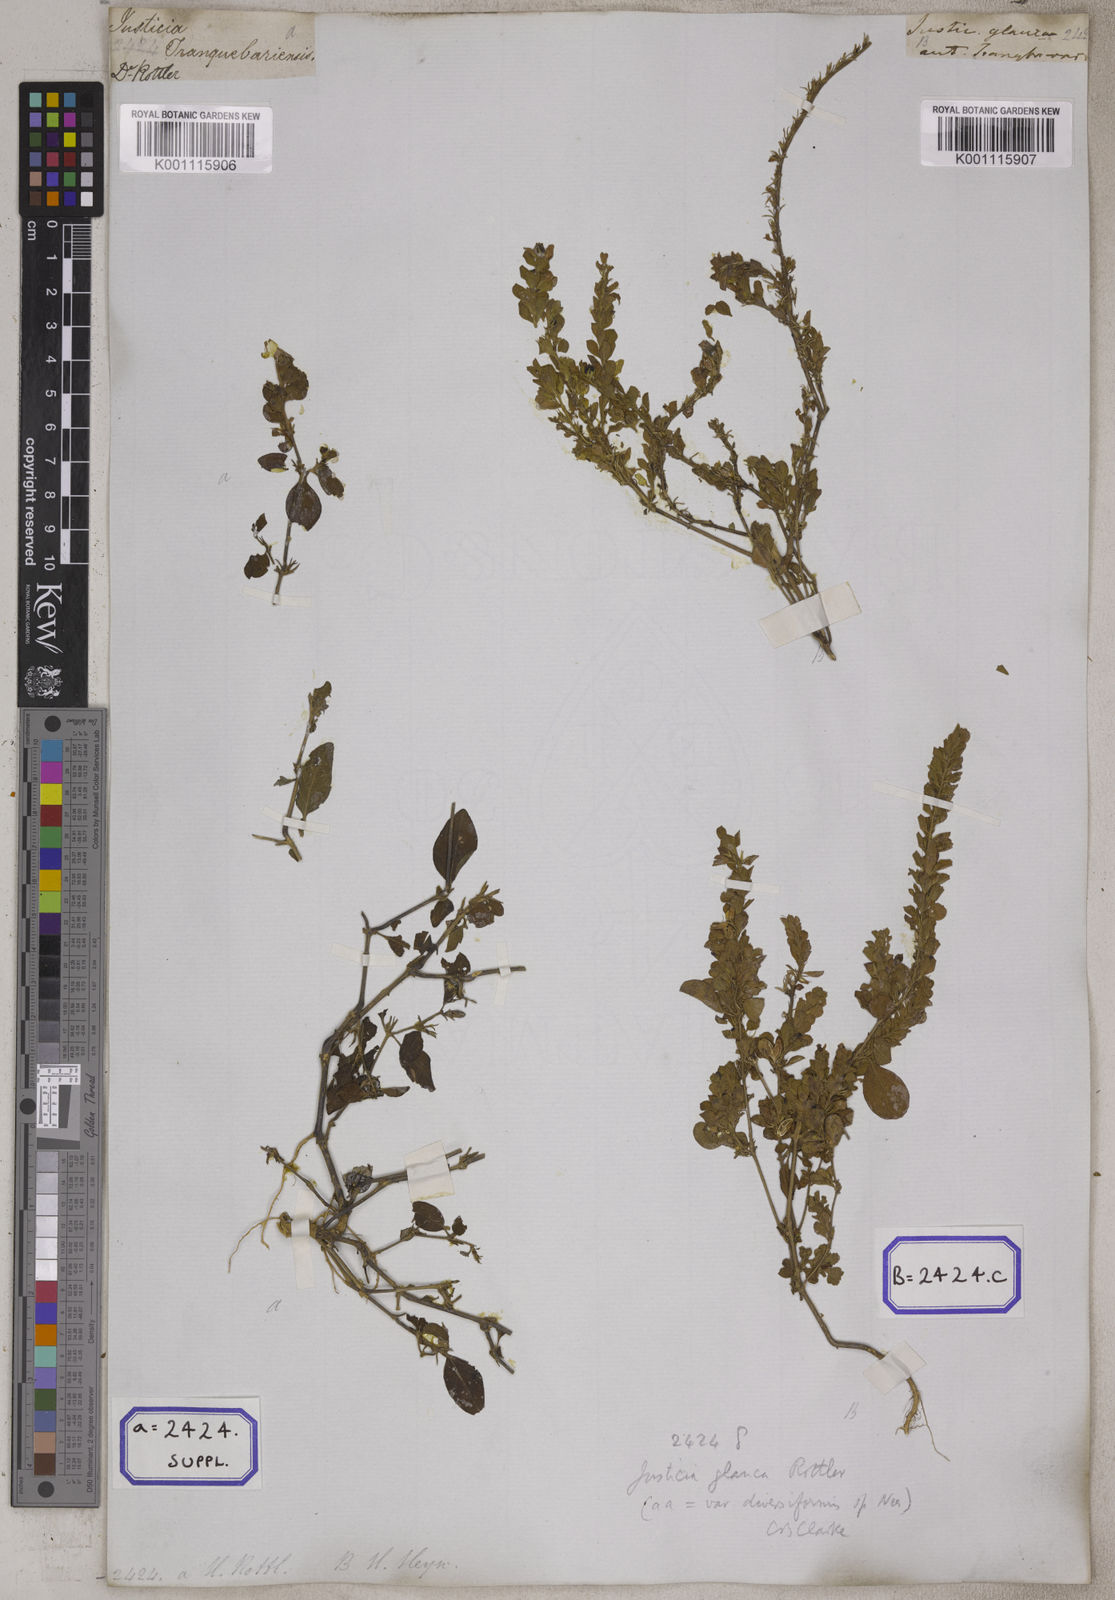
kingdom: Plantae
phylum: Tracheophyta
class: Magnoliopsida
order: Lamiales
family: Acanthaceae
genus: Justicia
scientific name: Justicia tranquebariensis
